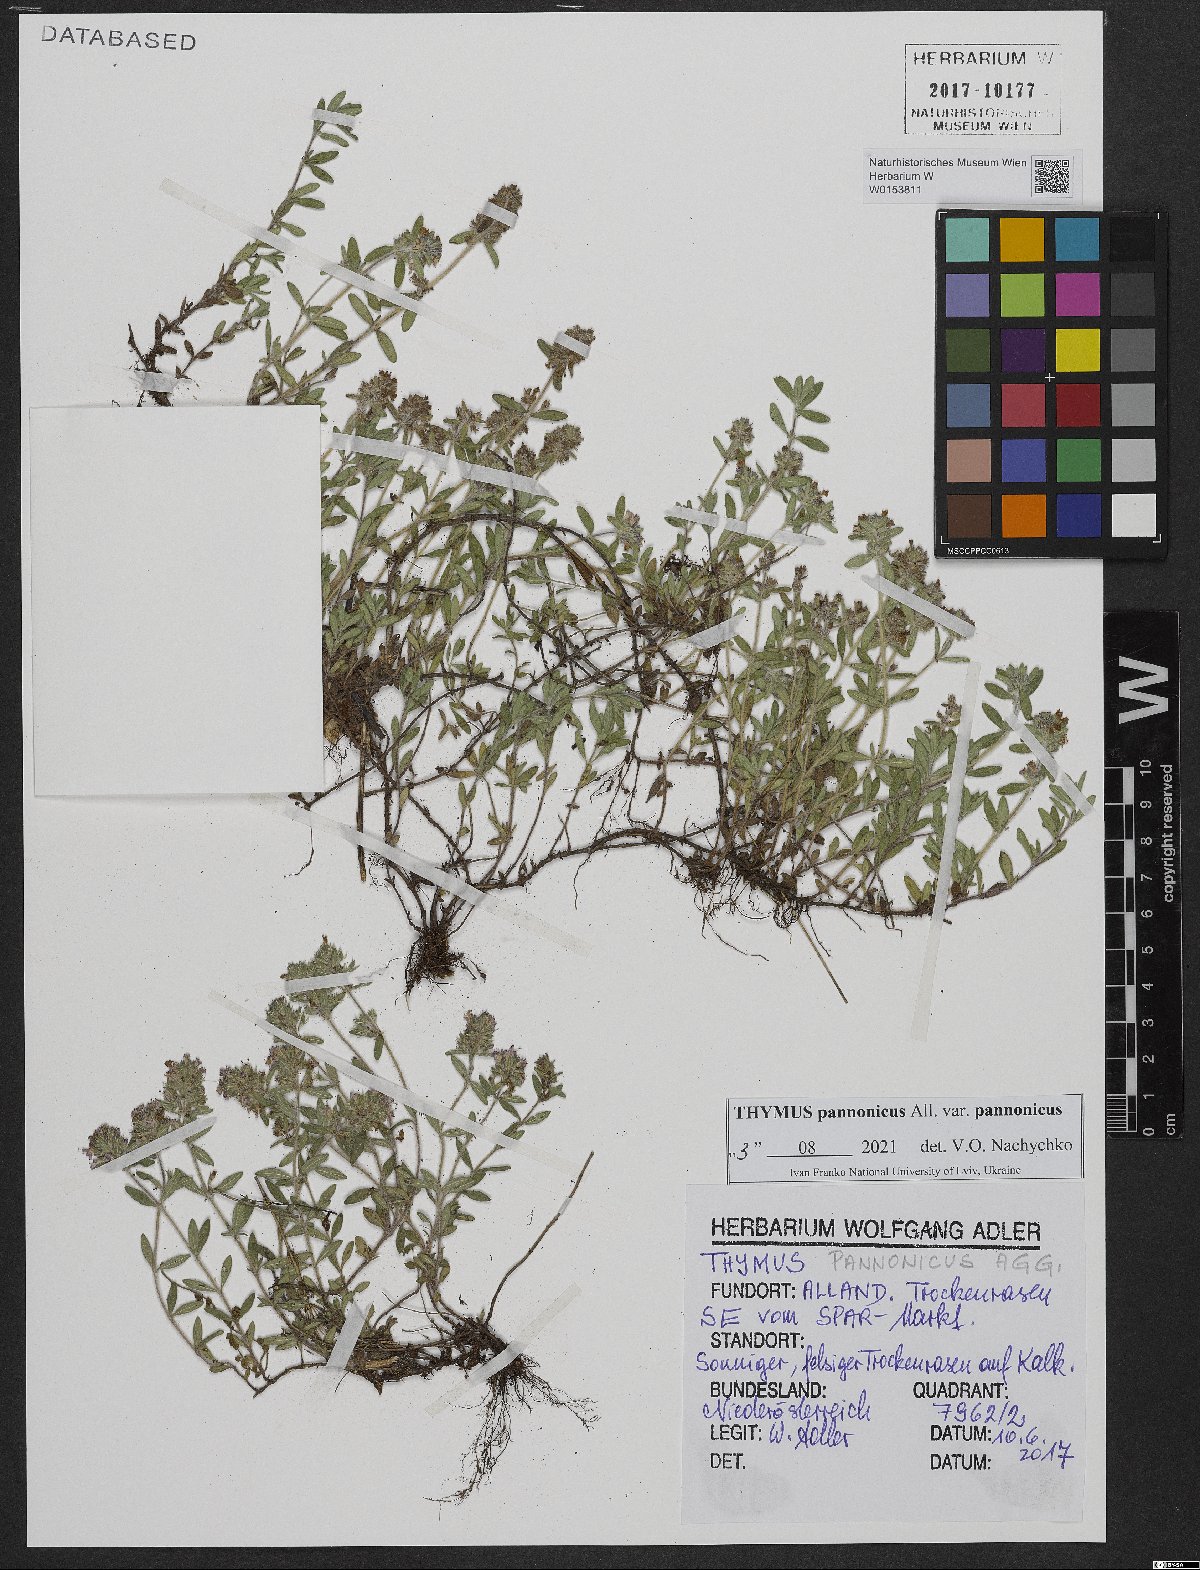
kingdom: Plantae
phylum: Tracheophyta
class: Magnoliopsida
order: Lamiales
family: Lamiaceae
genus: Thymus
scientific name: Thymus pannonicus
